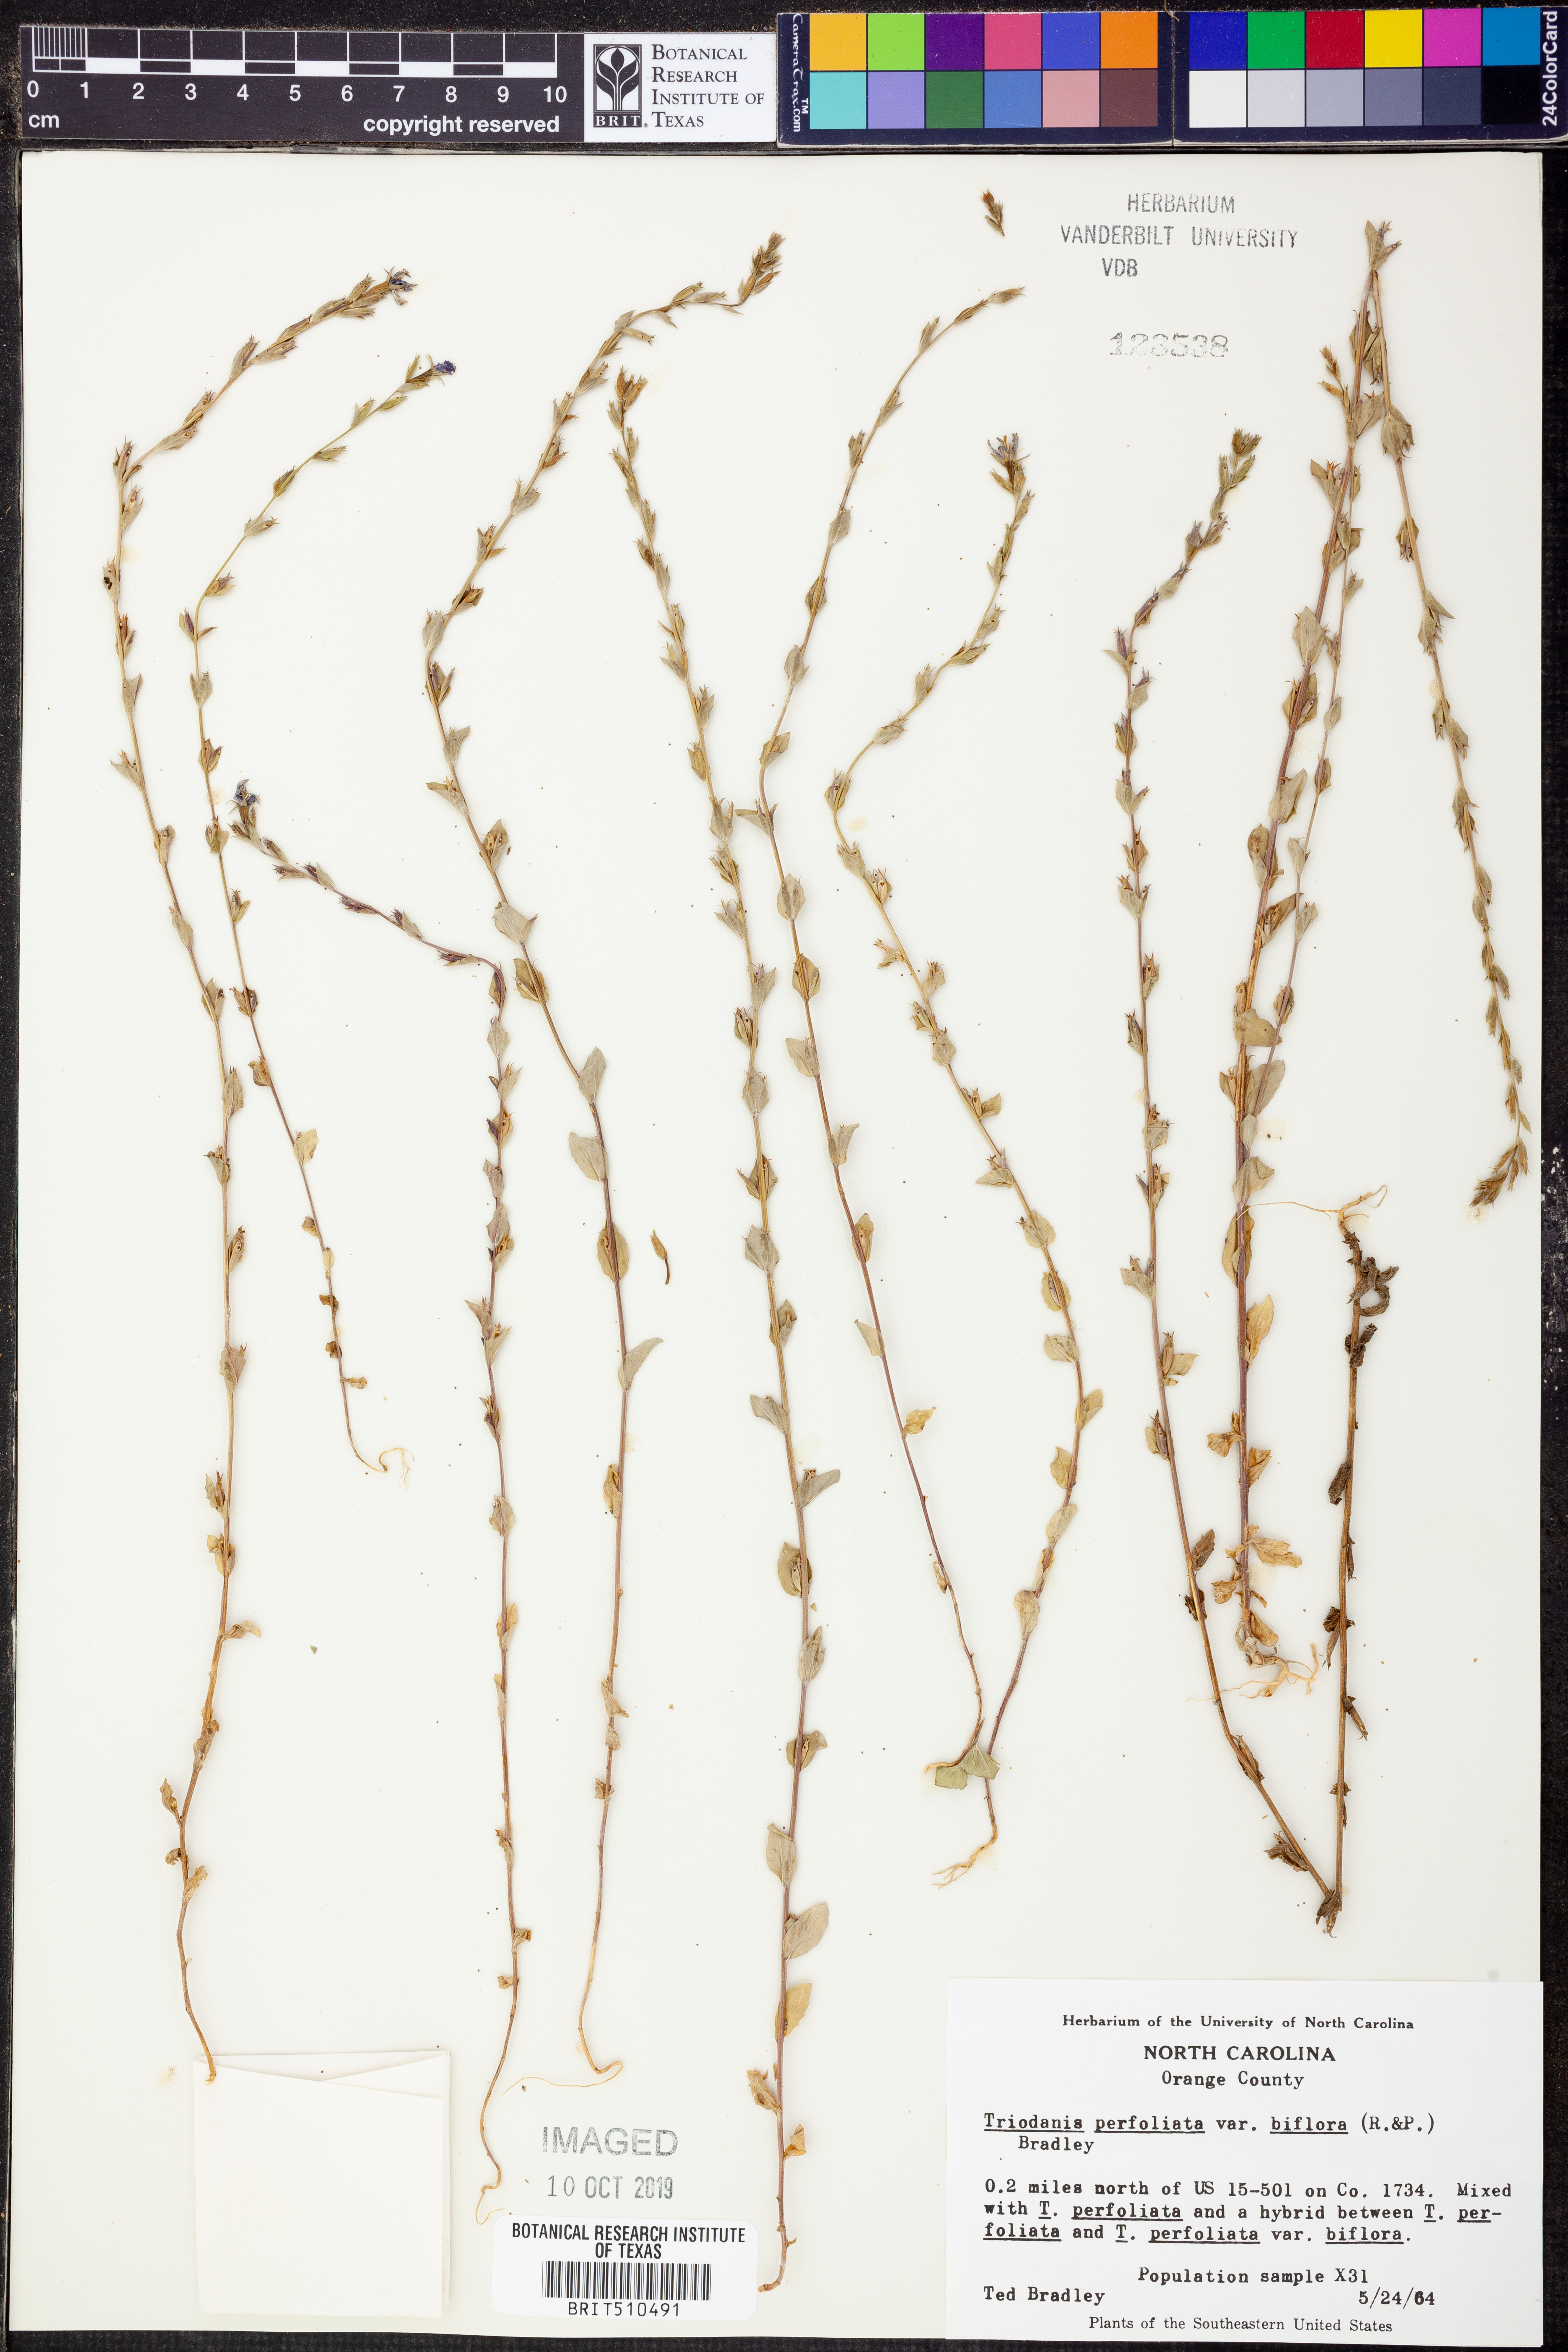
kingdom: Plantae
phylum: Tracheophyta
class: Magnoliopsida
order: Asterales
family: Campanulaceae
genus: Triodanis
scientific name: Triodanis perfoliata
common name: Clasping venus' looking-glass
